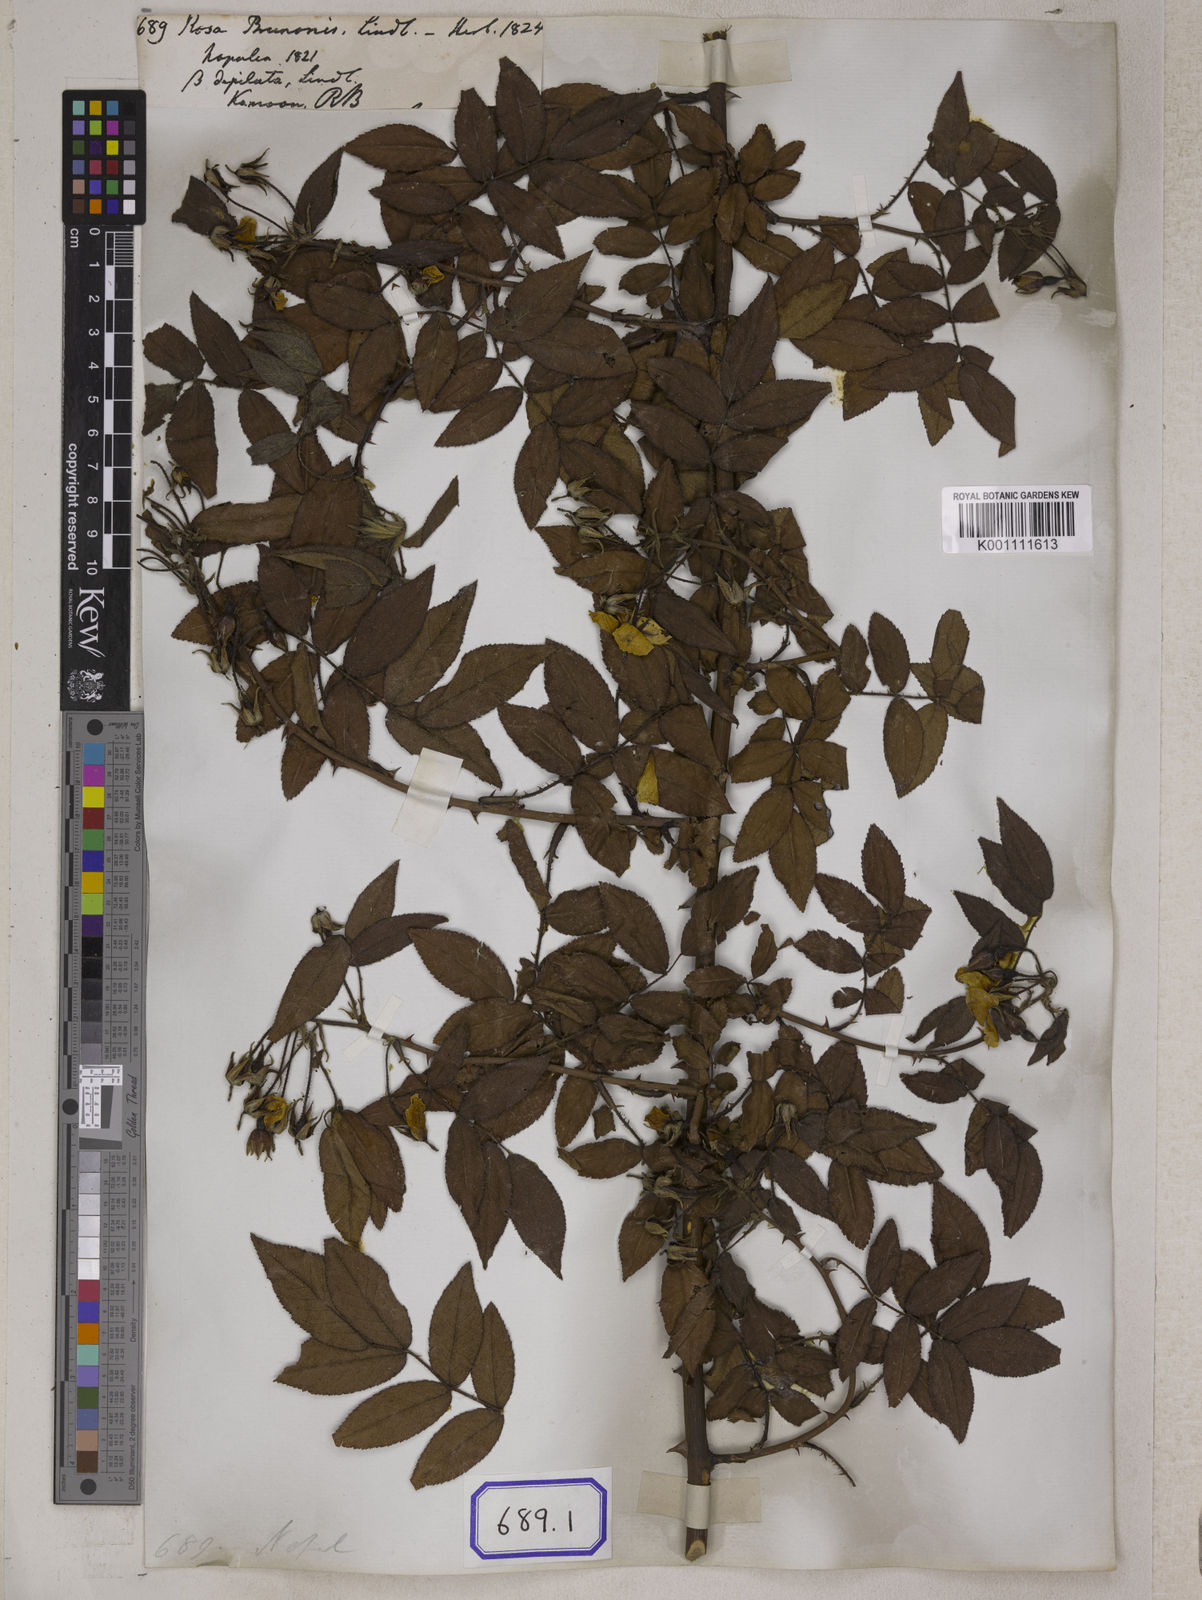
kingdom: Plantae
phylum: Tracheophyta
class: Magnoliopsida
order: Rosales
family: Rosaceae
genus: Rosa
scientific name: Rosa
